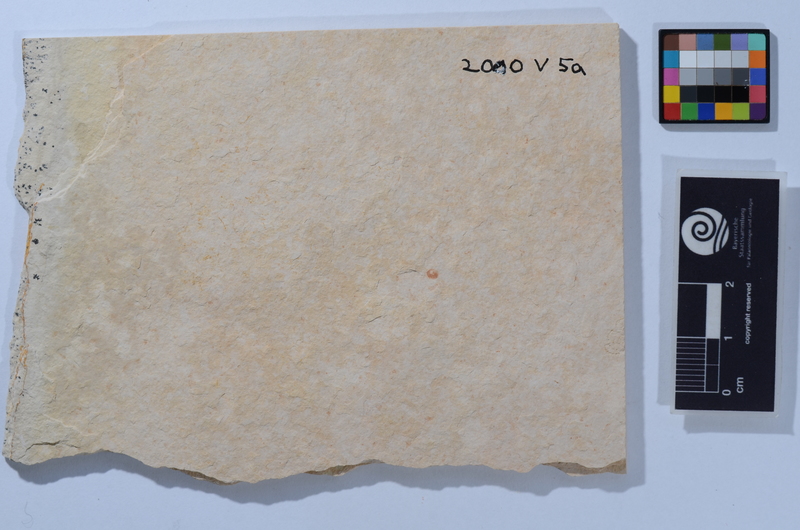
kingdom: Animalia
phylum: Chordata
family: Allothrissopidae
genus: Allothrissops
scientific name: Allothrissops
